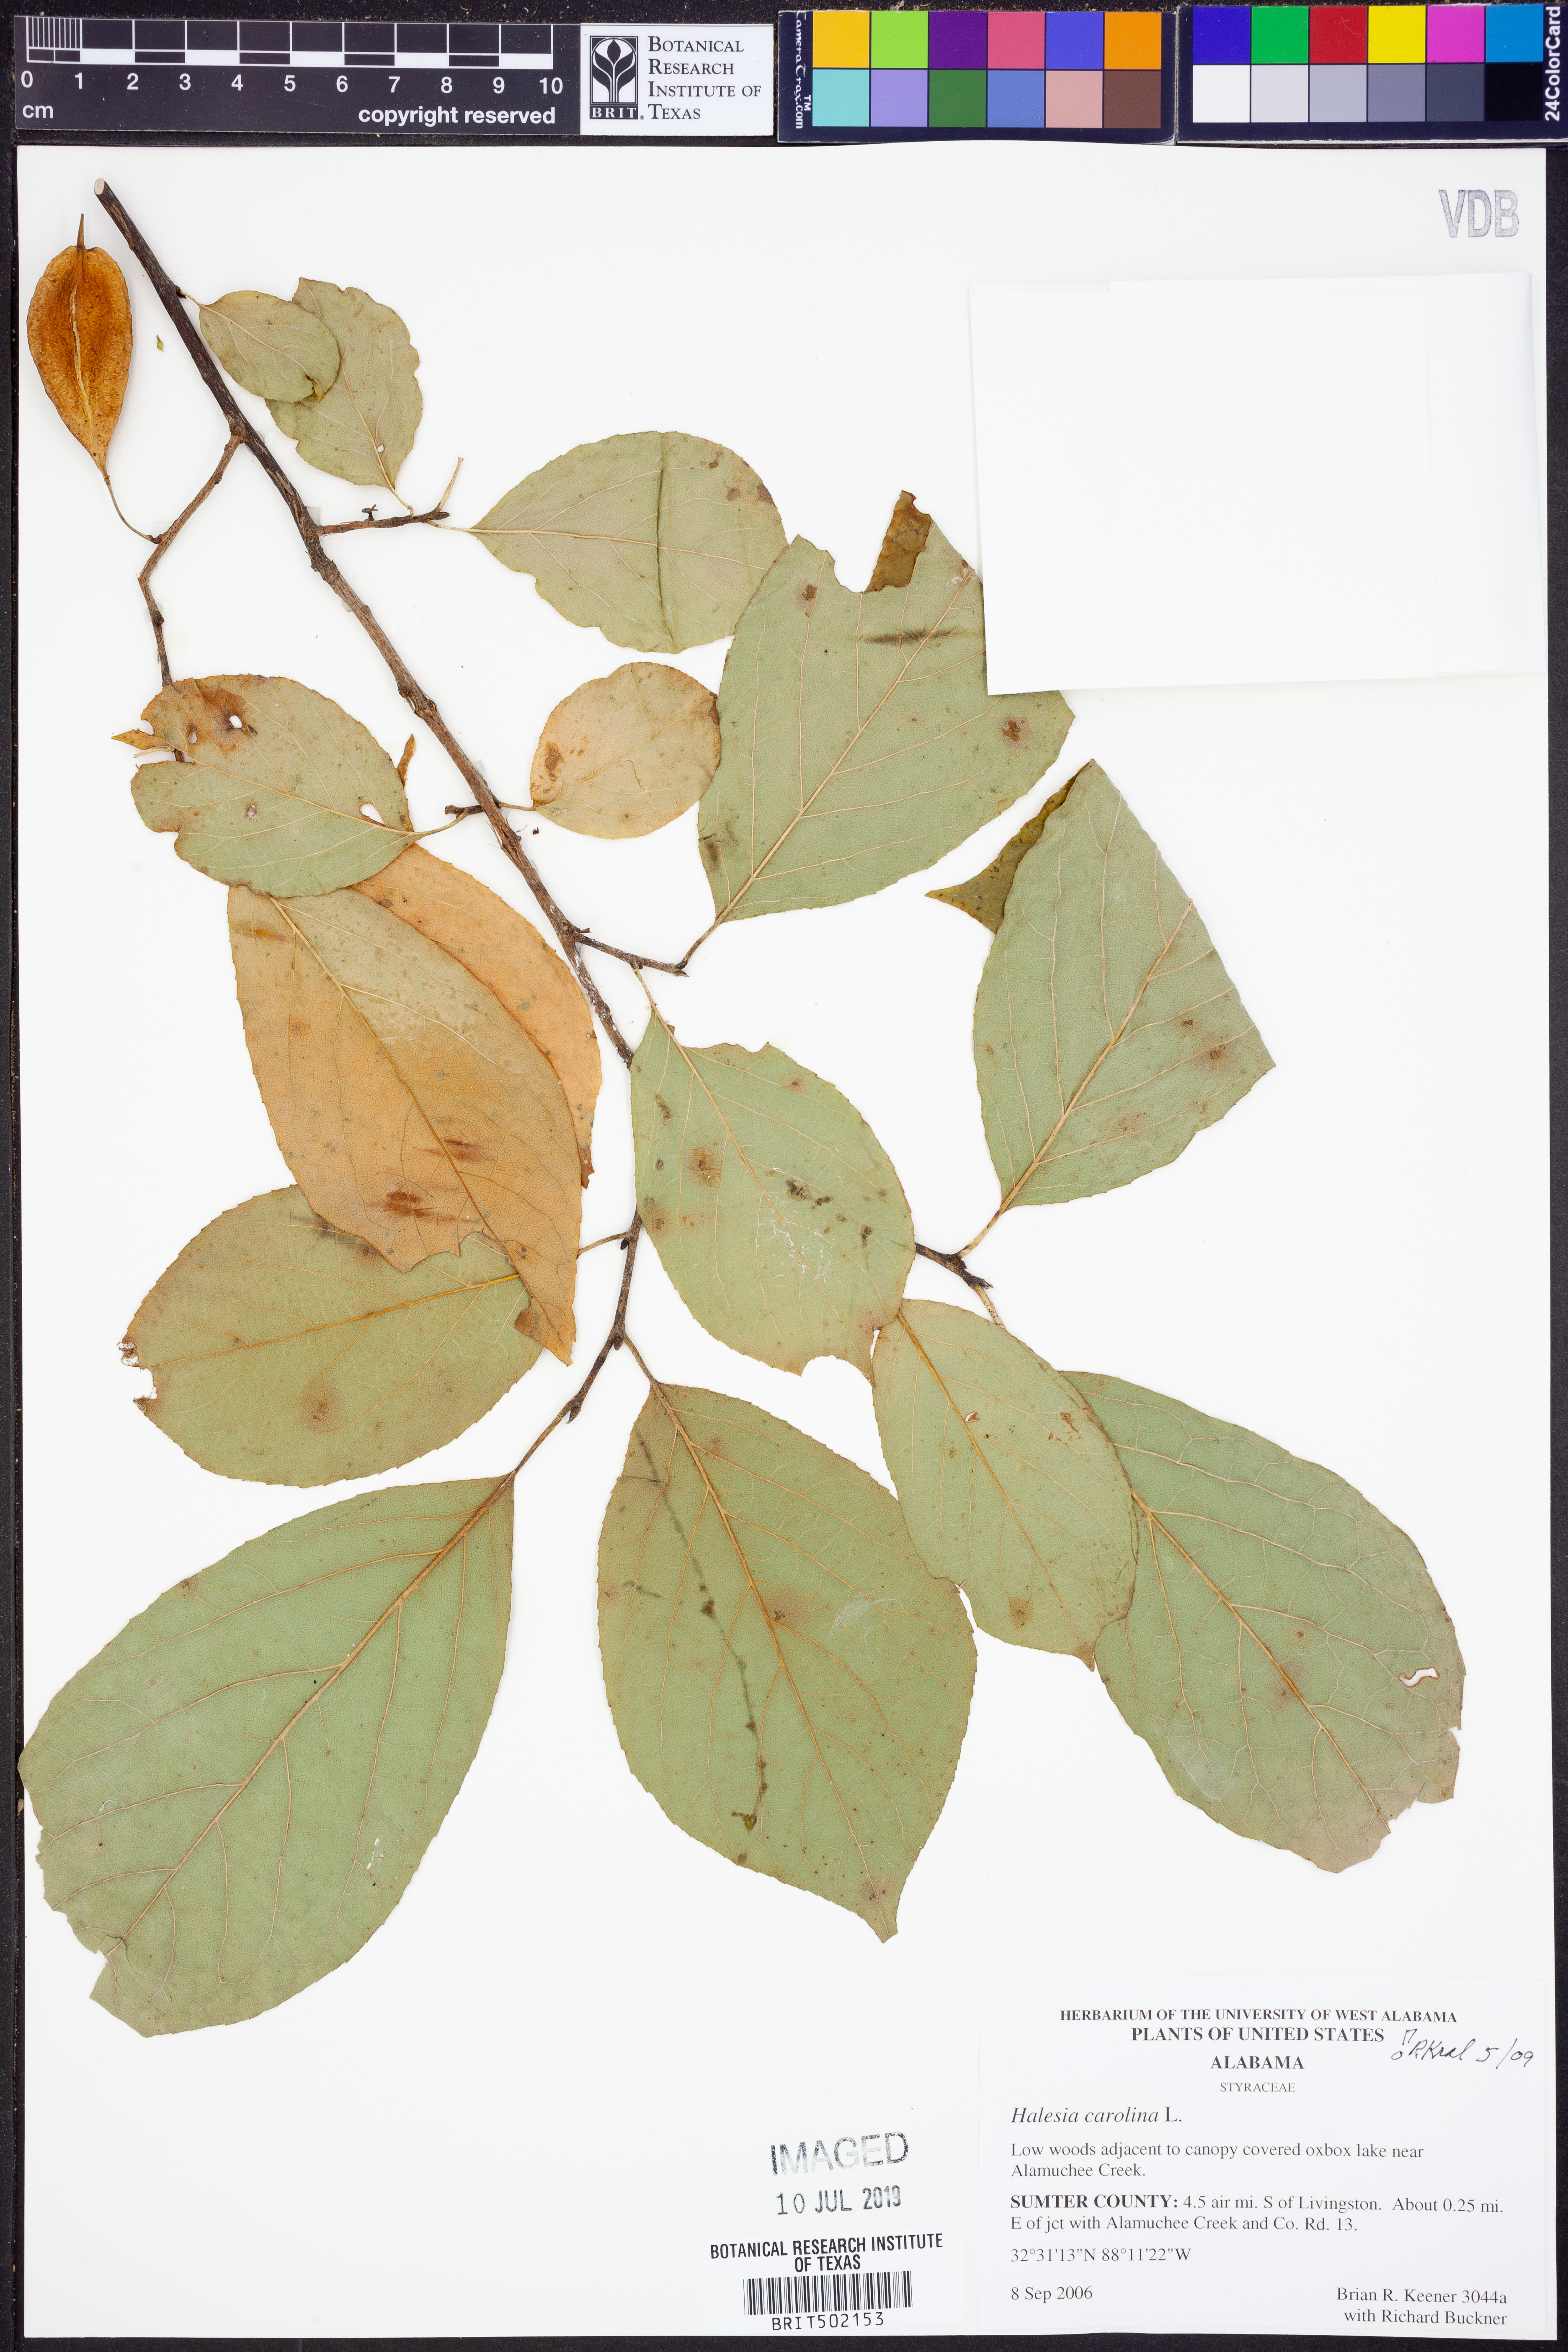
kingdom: Plantae
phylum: Tracheophyta
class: Magnoliopsida
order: Ericales
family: Styracaceae
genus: Halesia
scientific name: Halesia carolina
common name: Carolina silverbell
